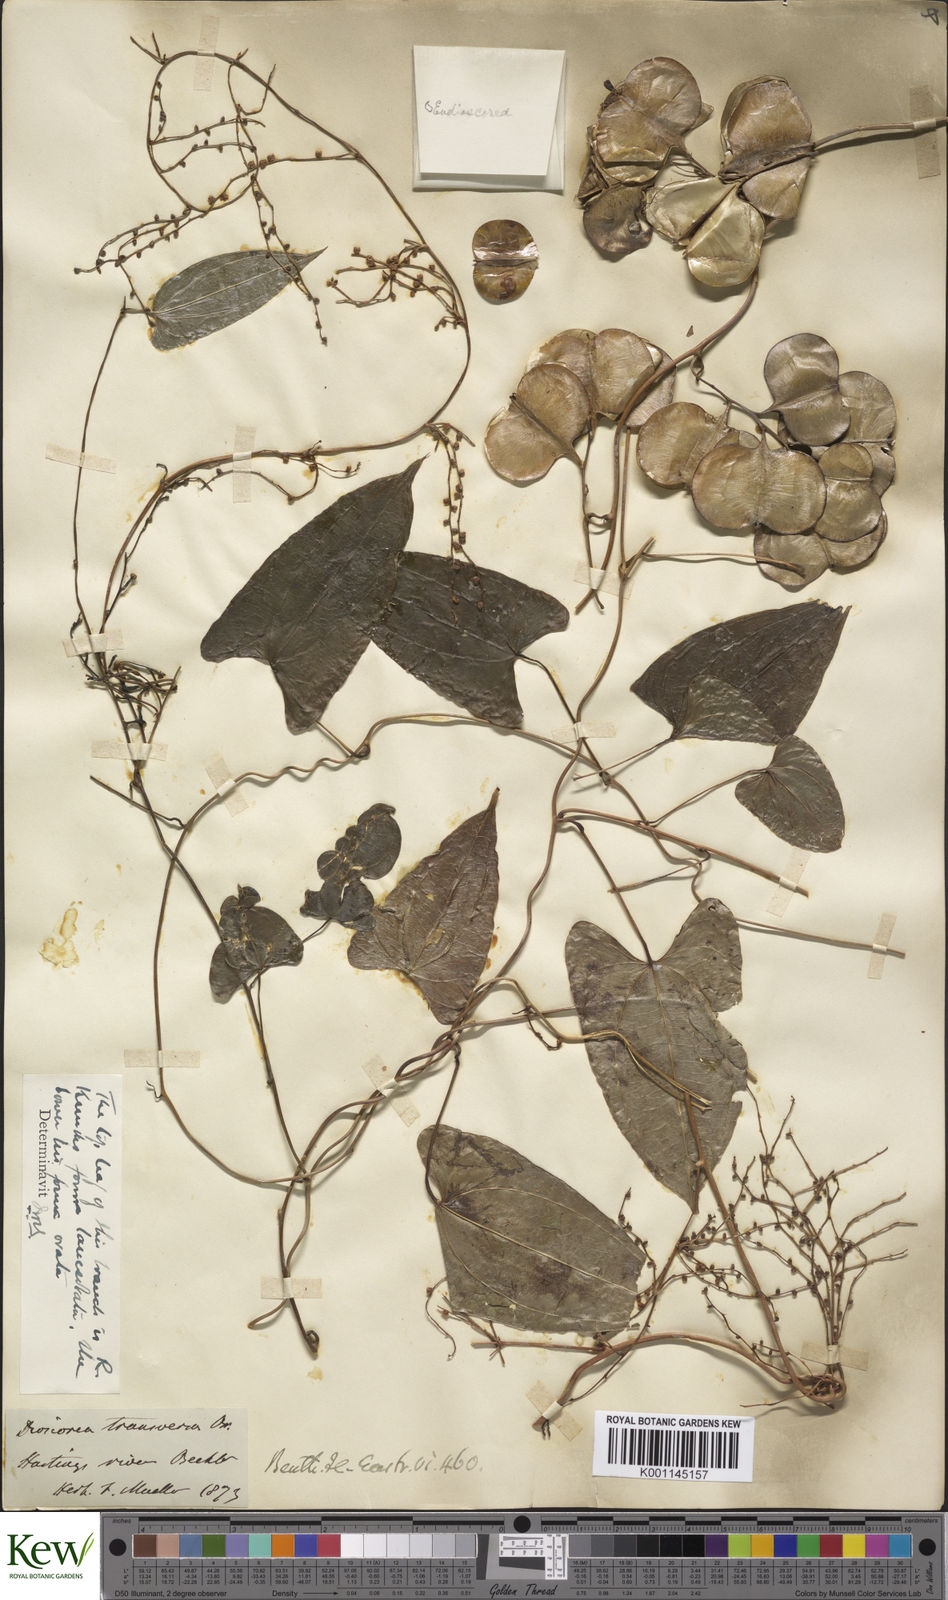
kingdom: Plantae
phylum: Tracheophyta
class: Liliopsida
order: Dioscoreales
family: Dioscoreaceae
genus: Dioscorea
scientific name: Dioscorea transversa
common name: Long yam
